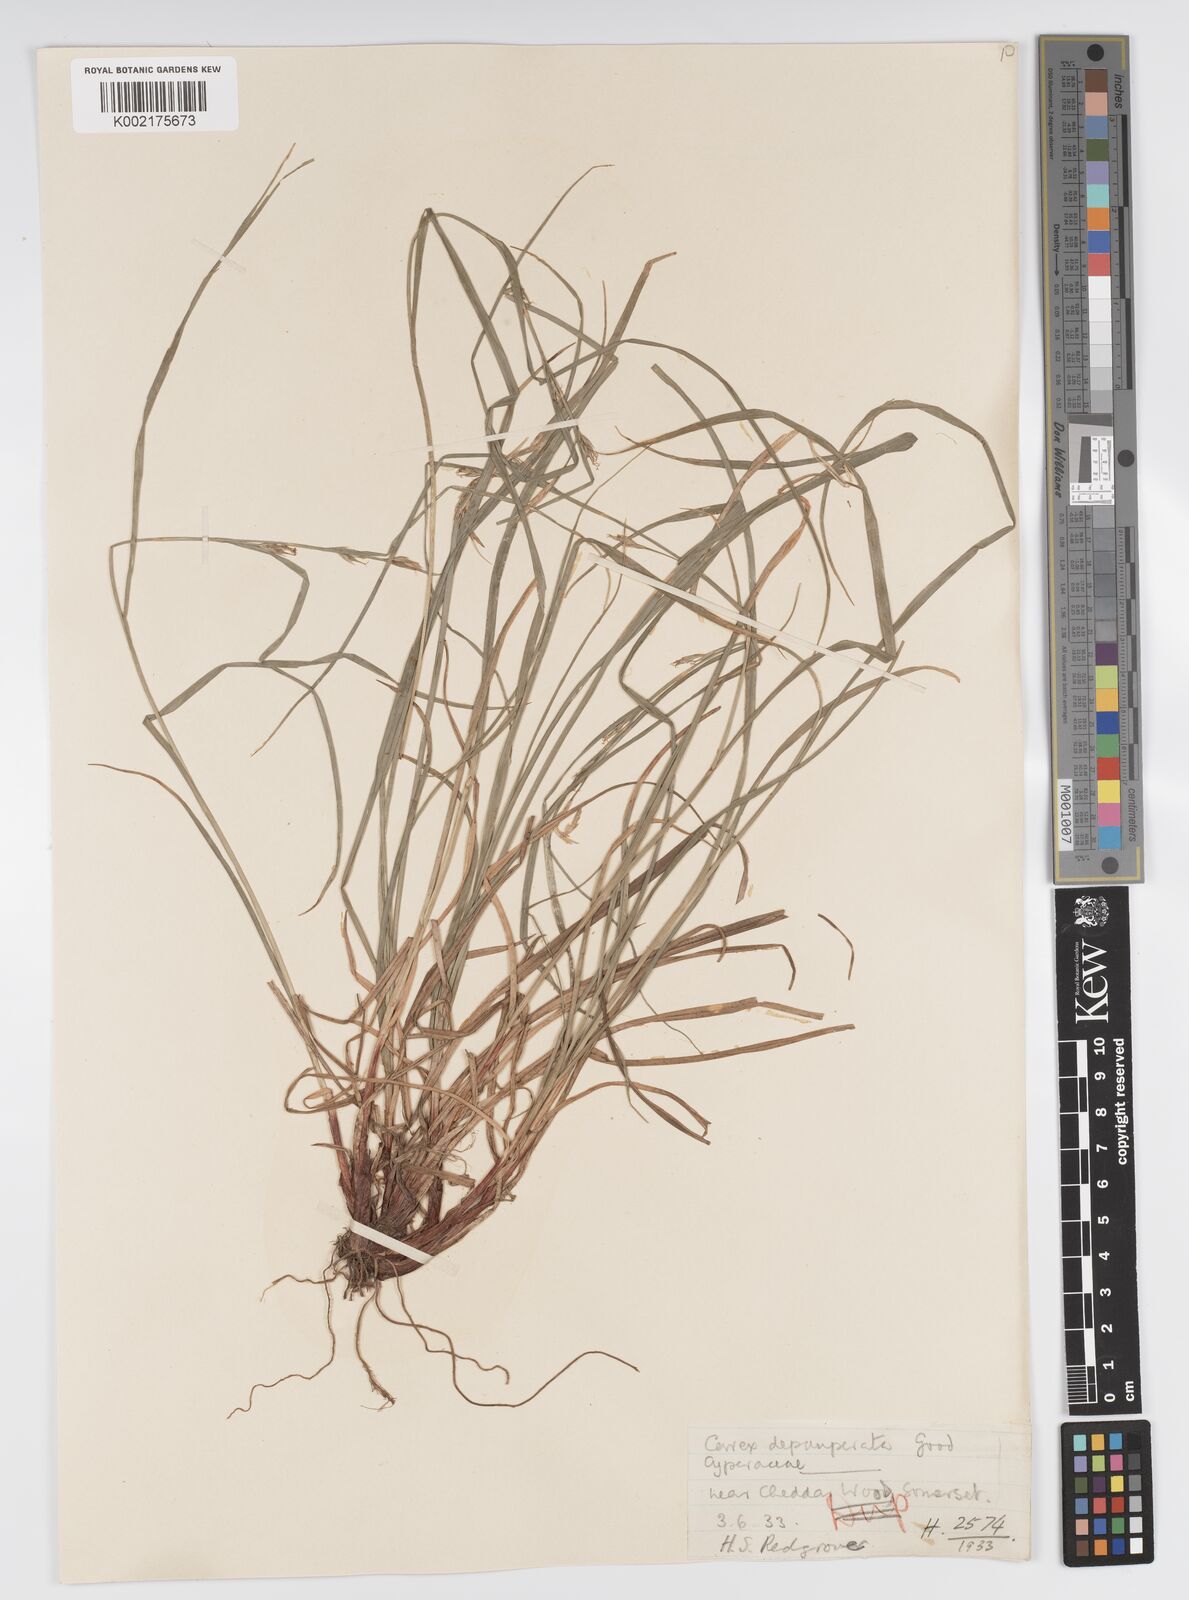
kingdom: Plantae
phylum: Tracheophyta
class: Liliopsida
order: Poales
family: Cyperaceae
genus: Carex
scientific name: Carex depauperata
